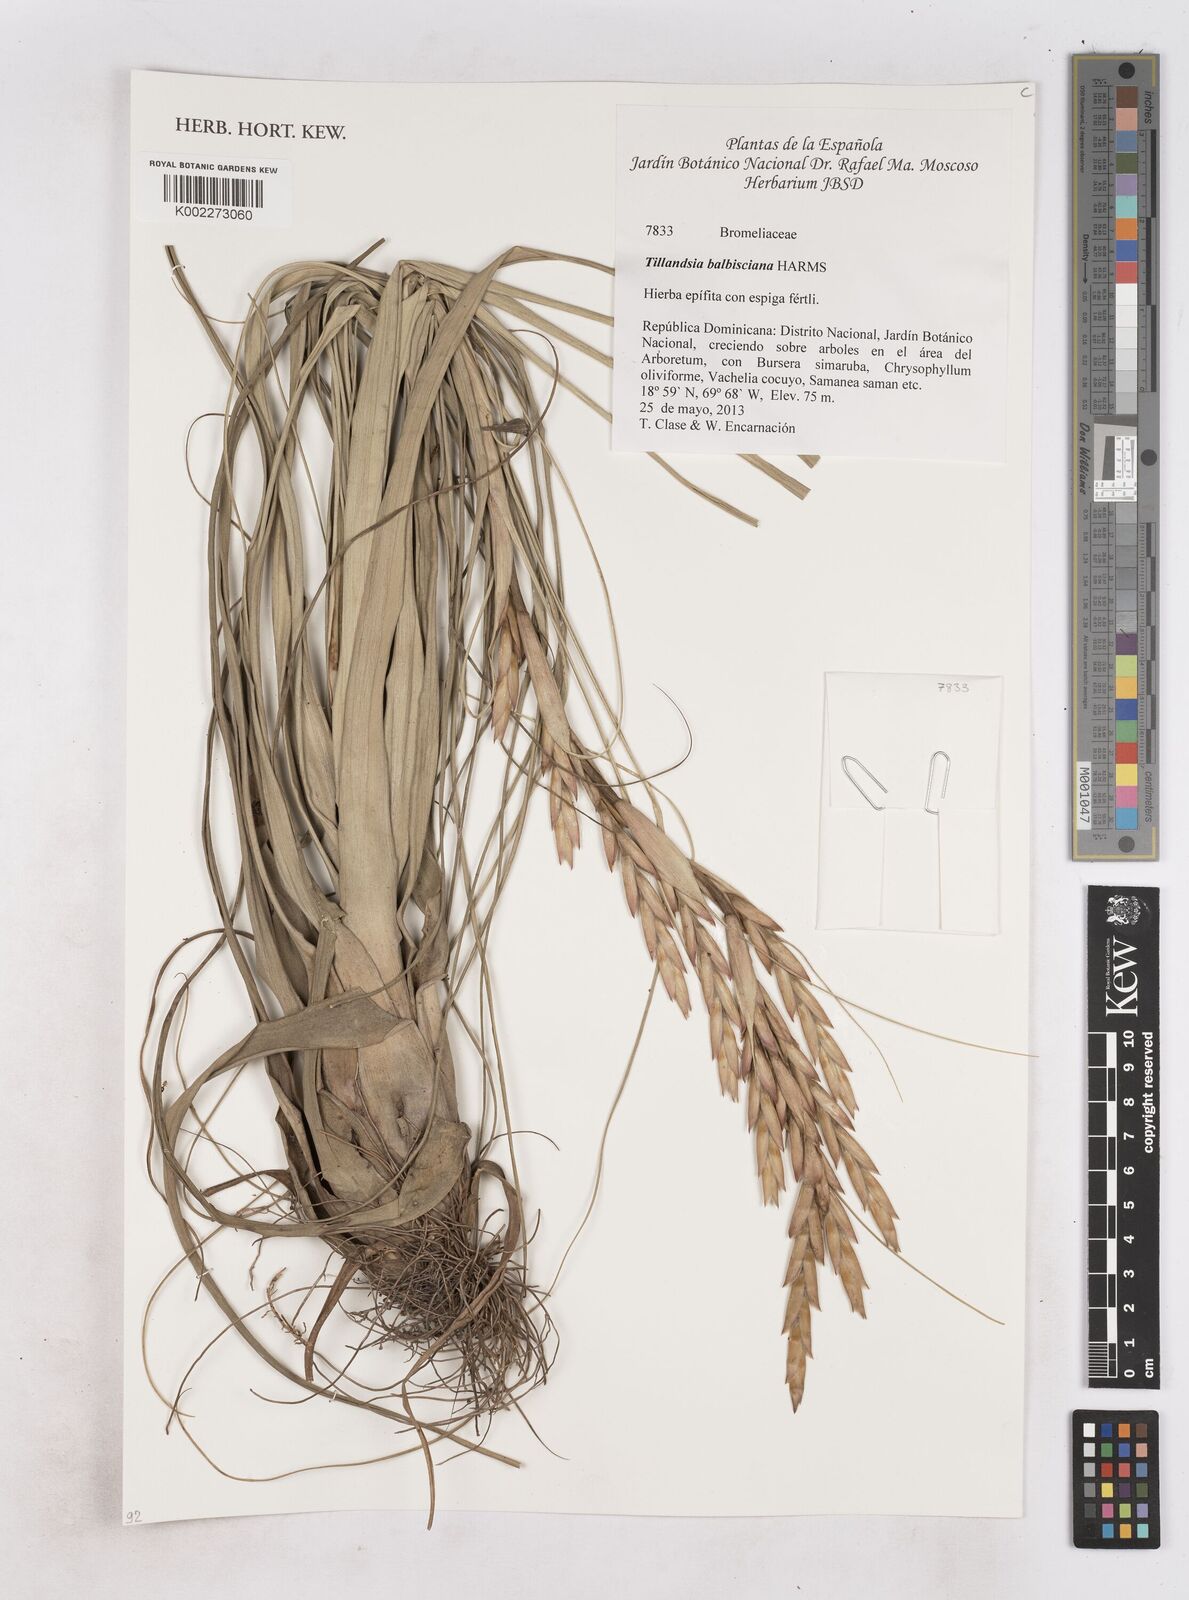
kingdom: Plantae
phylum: Tracheophyta
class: Liliopsida
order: Poales
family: Bromeliaceae
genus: Tillandsia
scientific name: Tillandsia balbisiana
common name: Northern needleleaf
